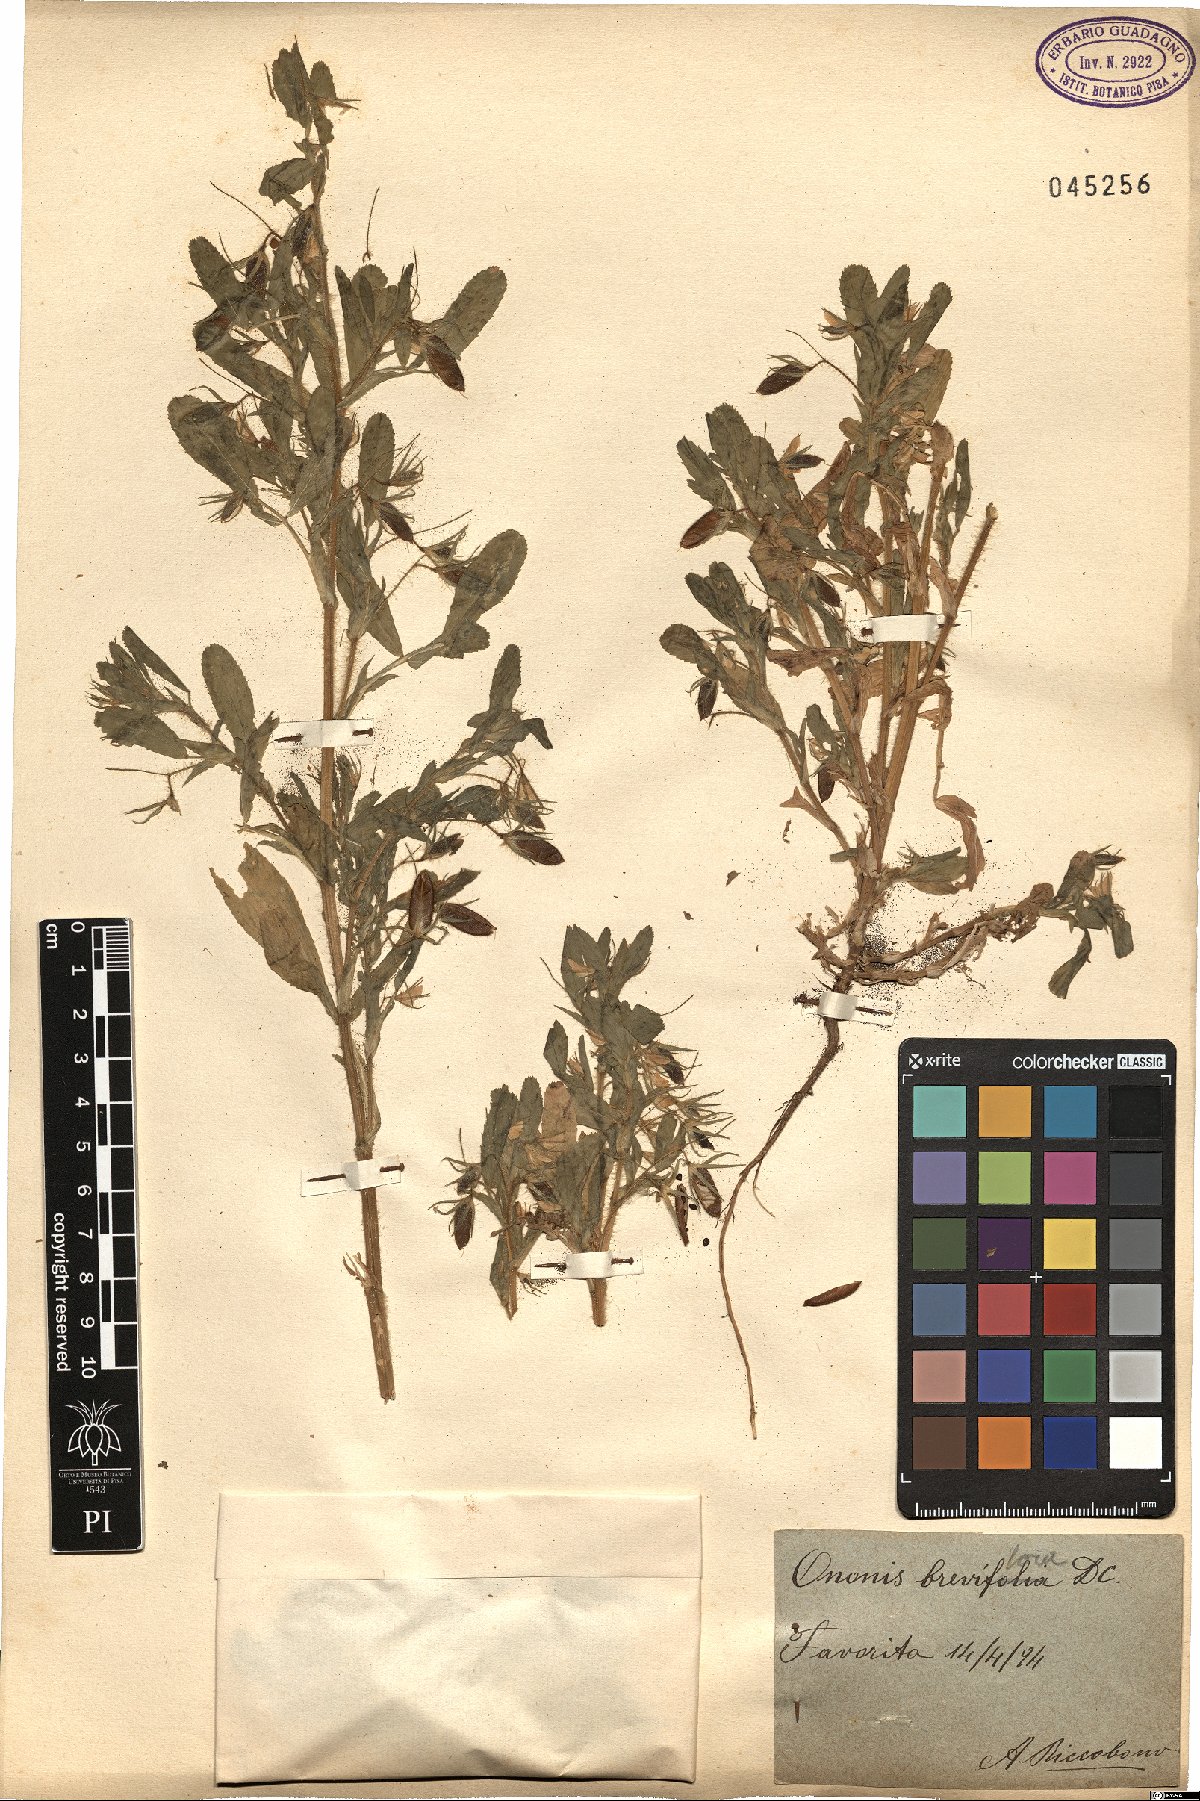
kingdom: Plantae
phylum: Tracheophyta
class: Magnoliopsida
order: Fabales
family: Fabaceae
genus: Ononis
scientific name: Ononis viscosa
